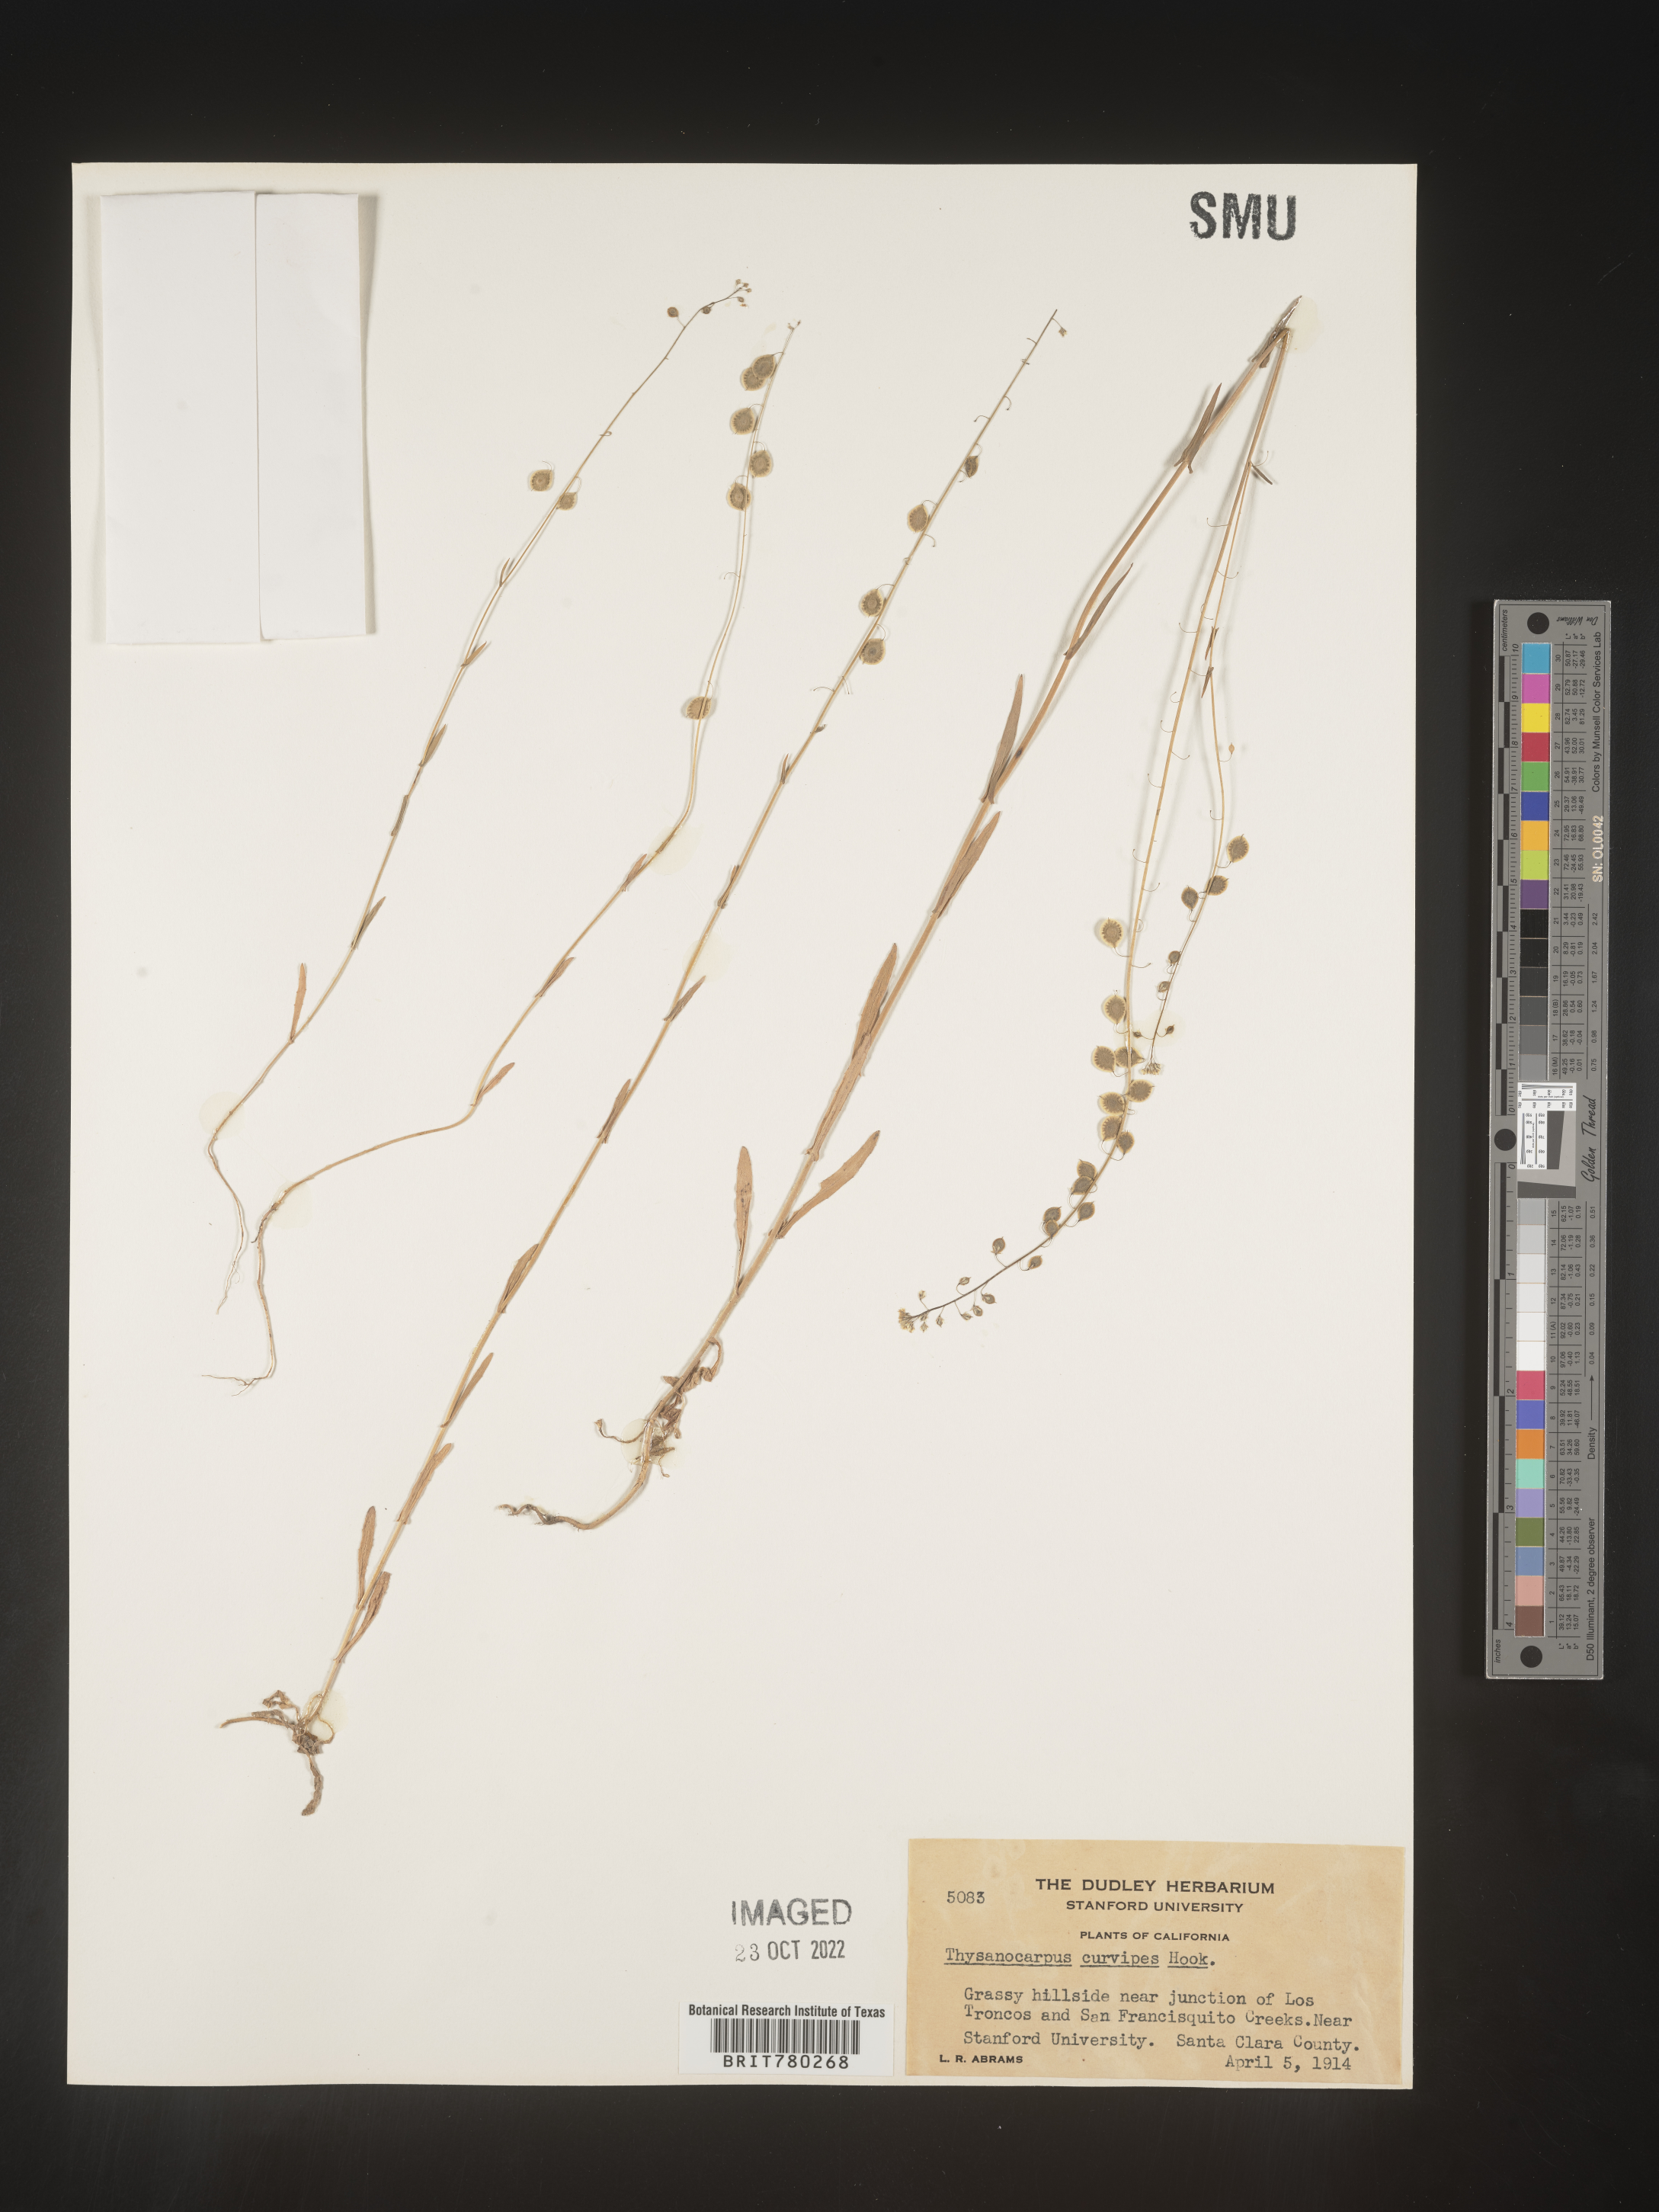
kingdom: Plantae
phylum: Tracheophyta
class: Magnoliopsida
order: Brassicales
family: Brassicaceae
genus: Thysanocarpus
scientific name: Thysanocarpus
